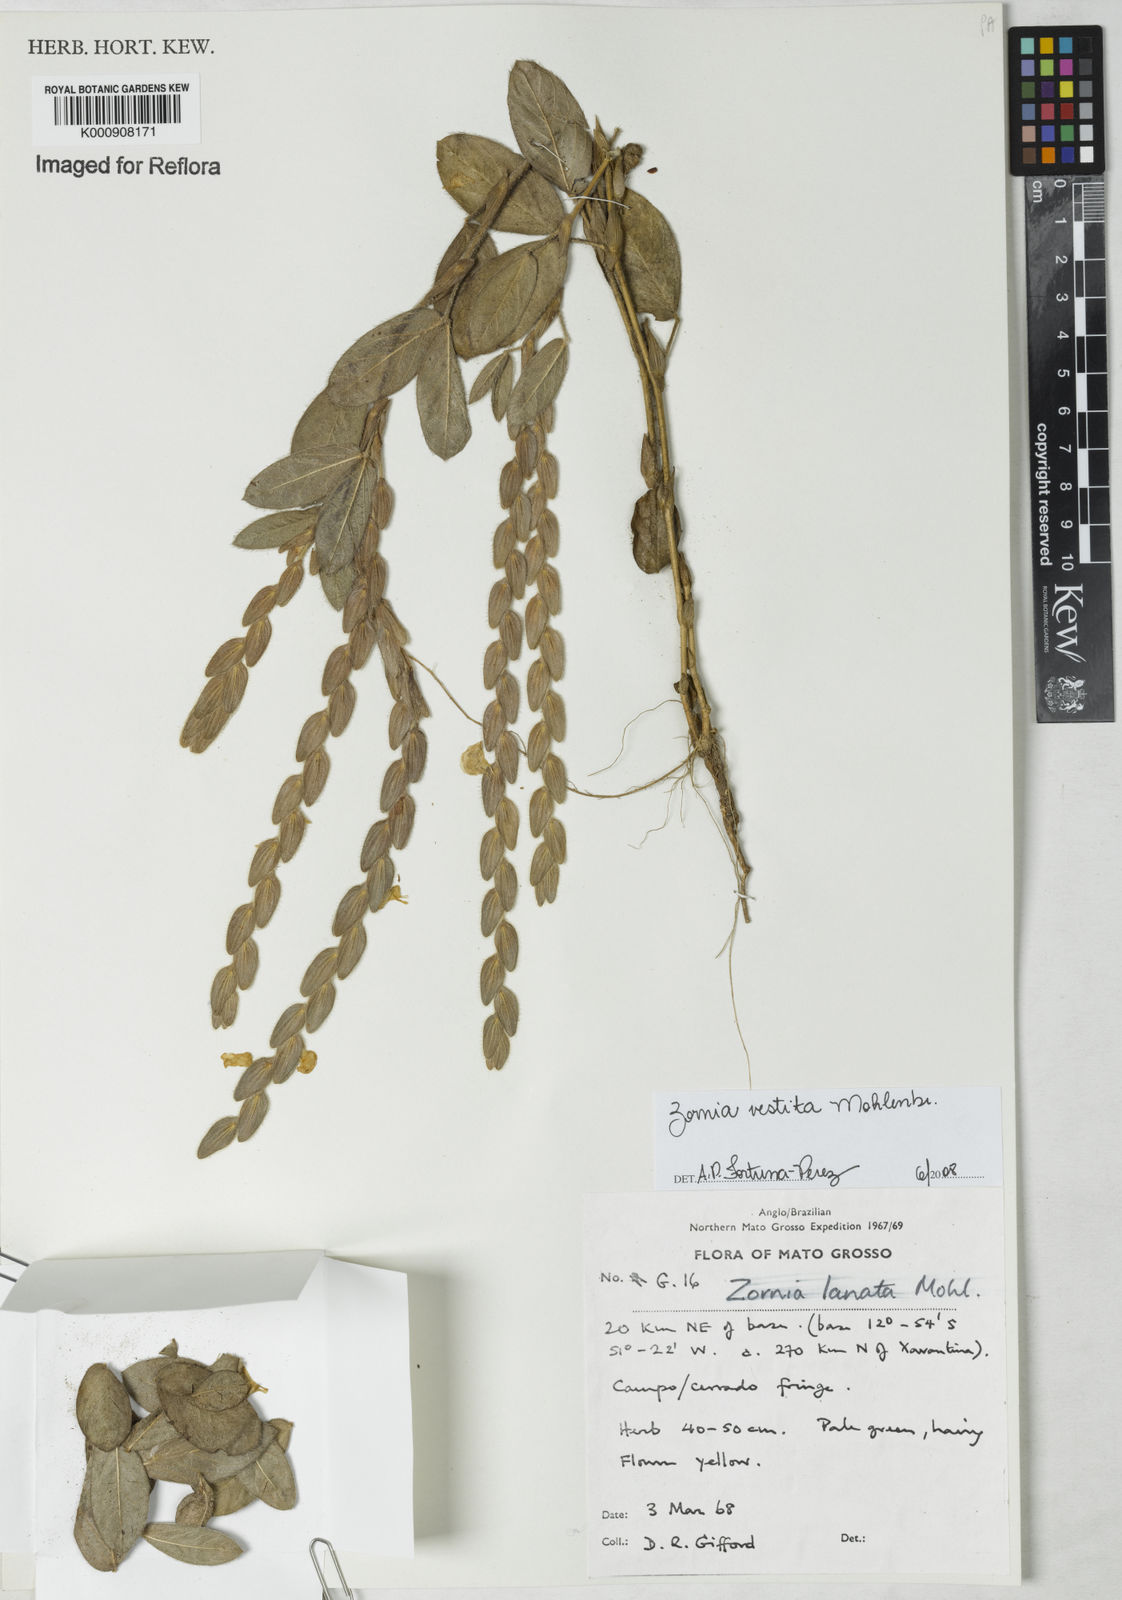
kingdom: Plantae
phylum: Tracheophyta
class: Magnoliopsida
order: Fabales
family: Fabaceae
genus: Zornia
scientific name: Zornia villosa
